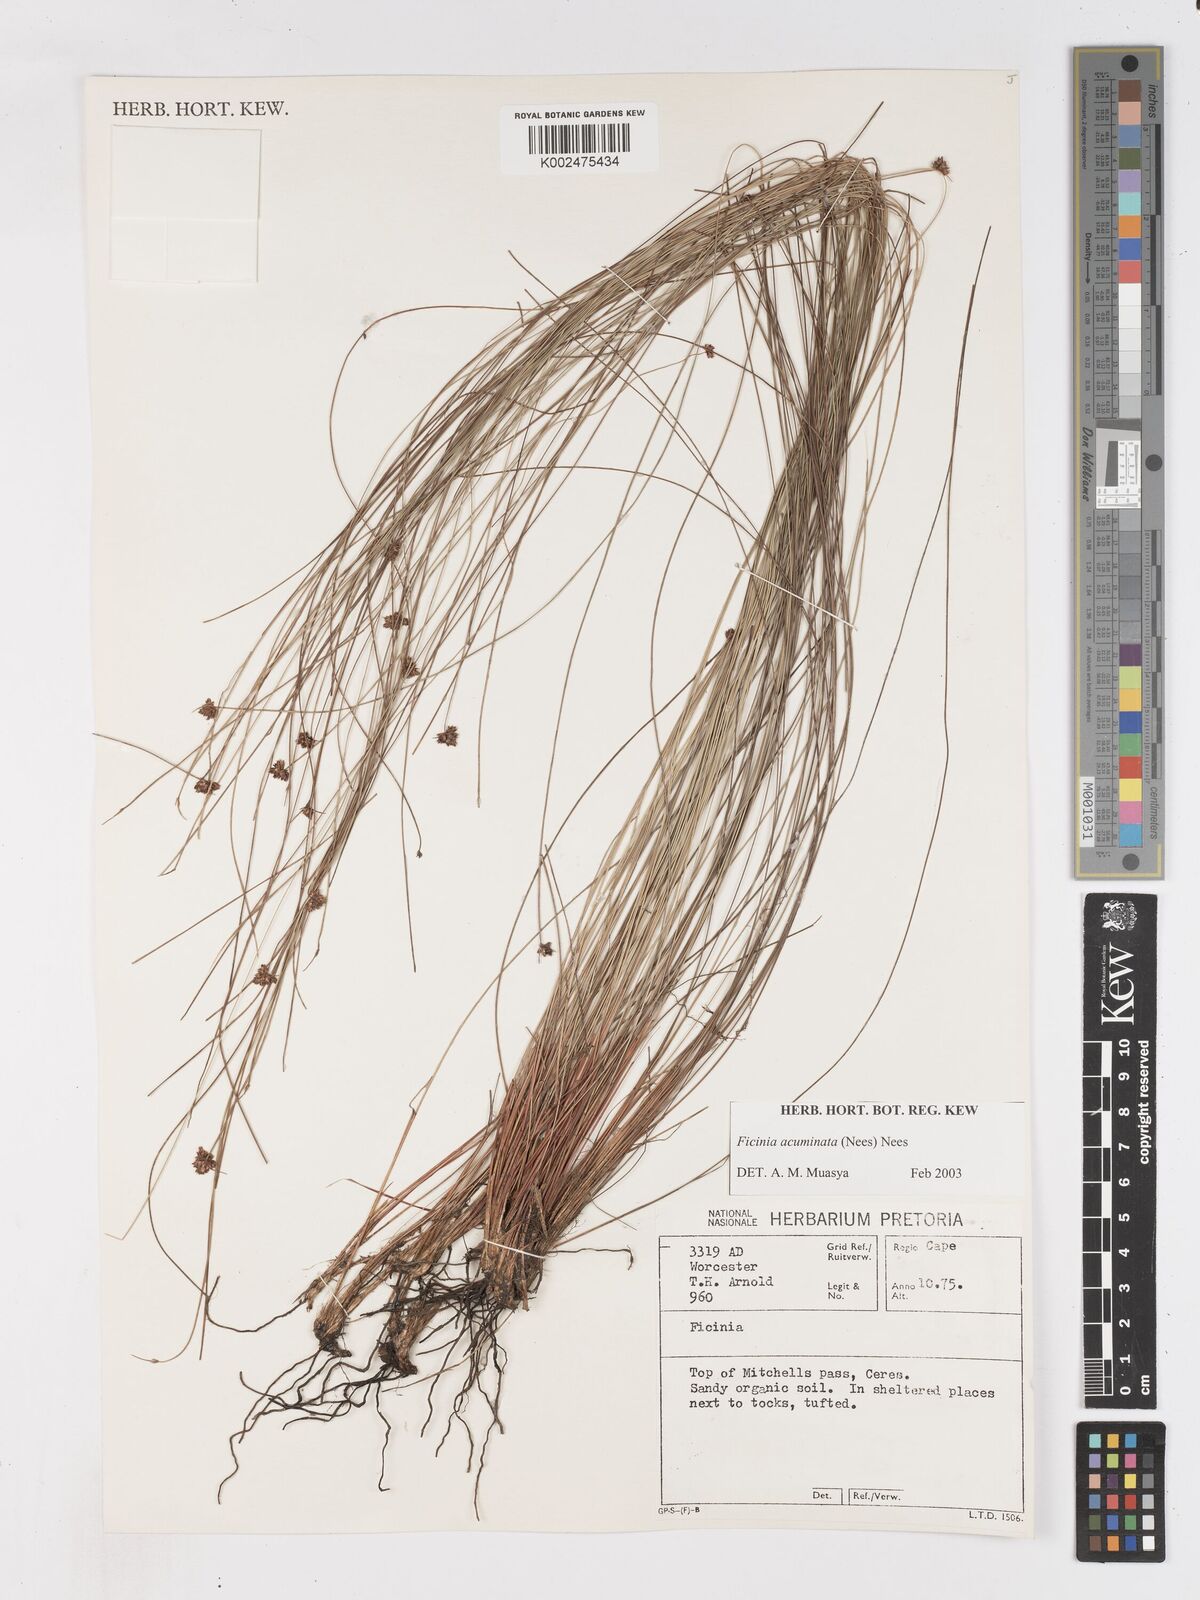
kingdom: Plantae
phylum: Tracheophyta
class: Liliopsida
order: Poales
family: Cyperaceae
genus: Ficinia
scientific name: Ficinia acuminata
